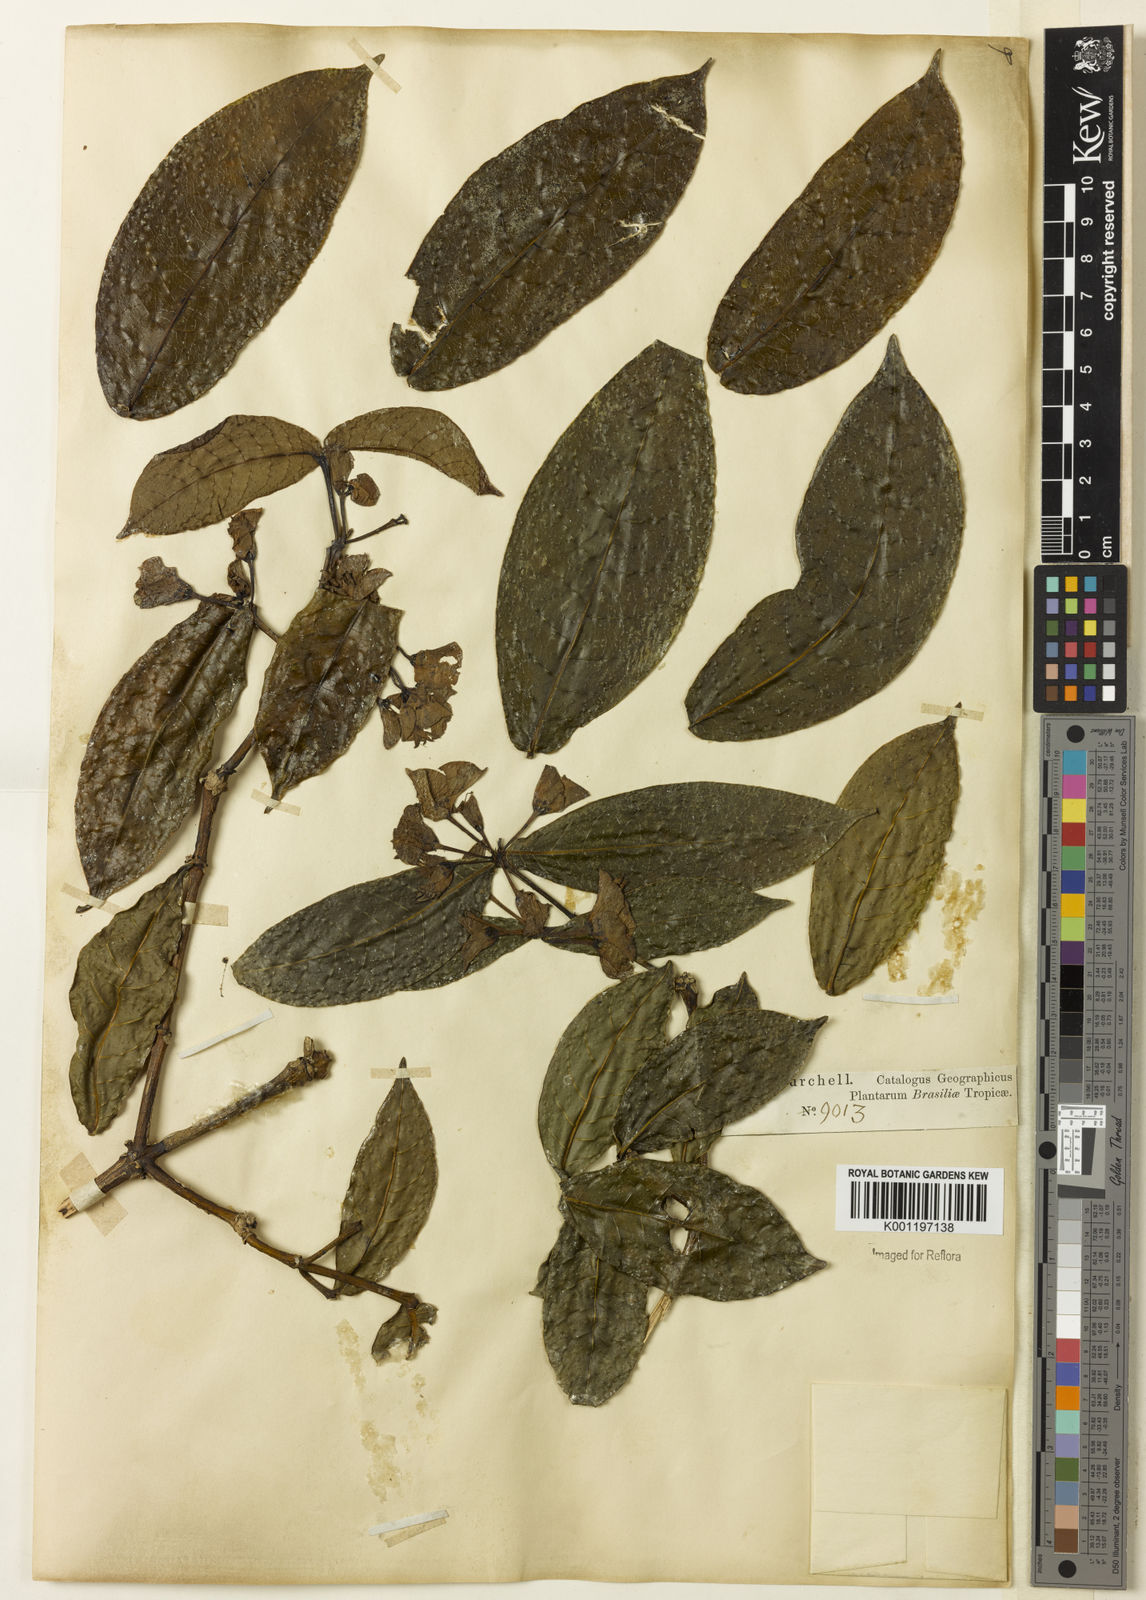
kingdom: Plantae
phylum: Tracheophyta
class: Magnoliopsida
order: Gentianales
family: Rubiaceae
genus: Faramea
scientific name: Faramea bracteata
